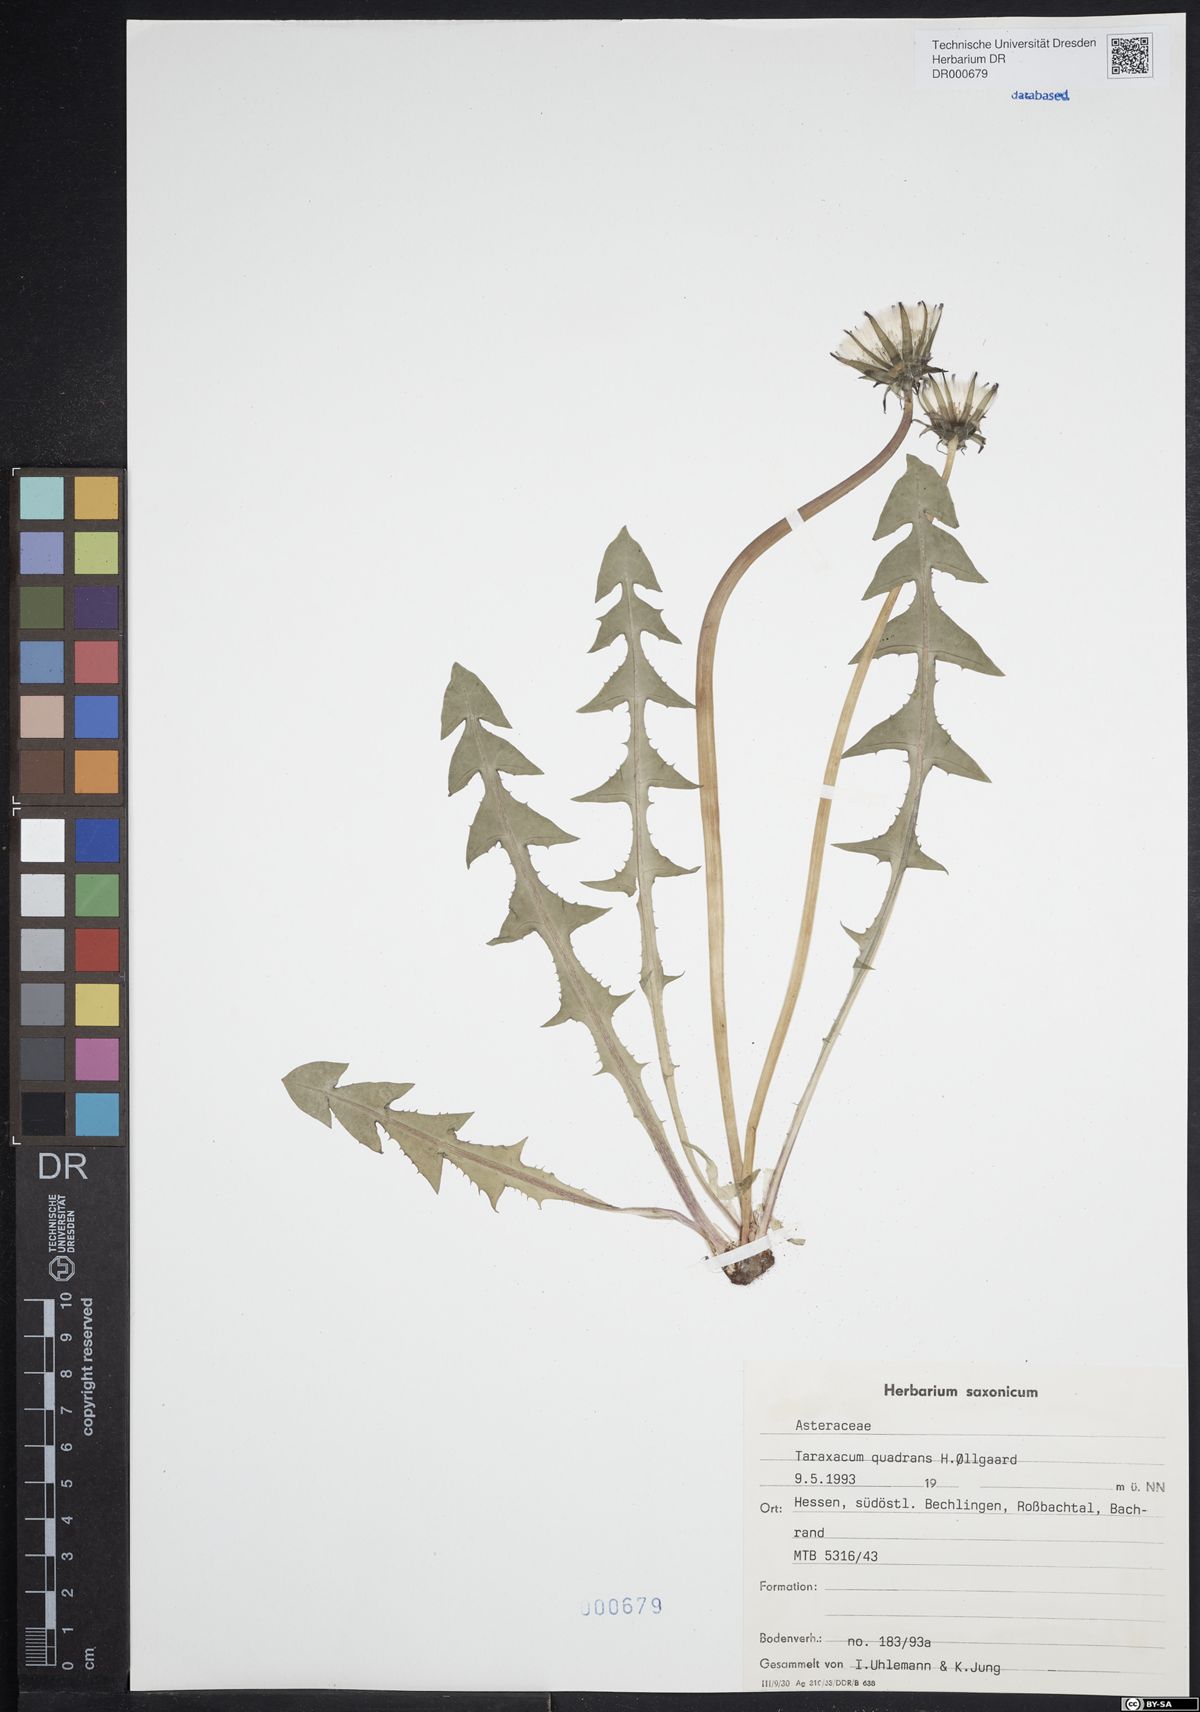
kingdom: Plantae
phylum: Tracheophyta
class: Magnoliopsida
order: Asterales
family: Asteraceae
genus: Taraxacum
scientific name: Taraxacum quadrans
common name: Fleshy-lobed dandelion
